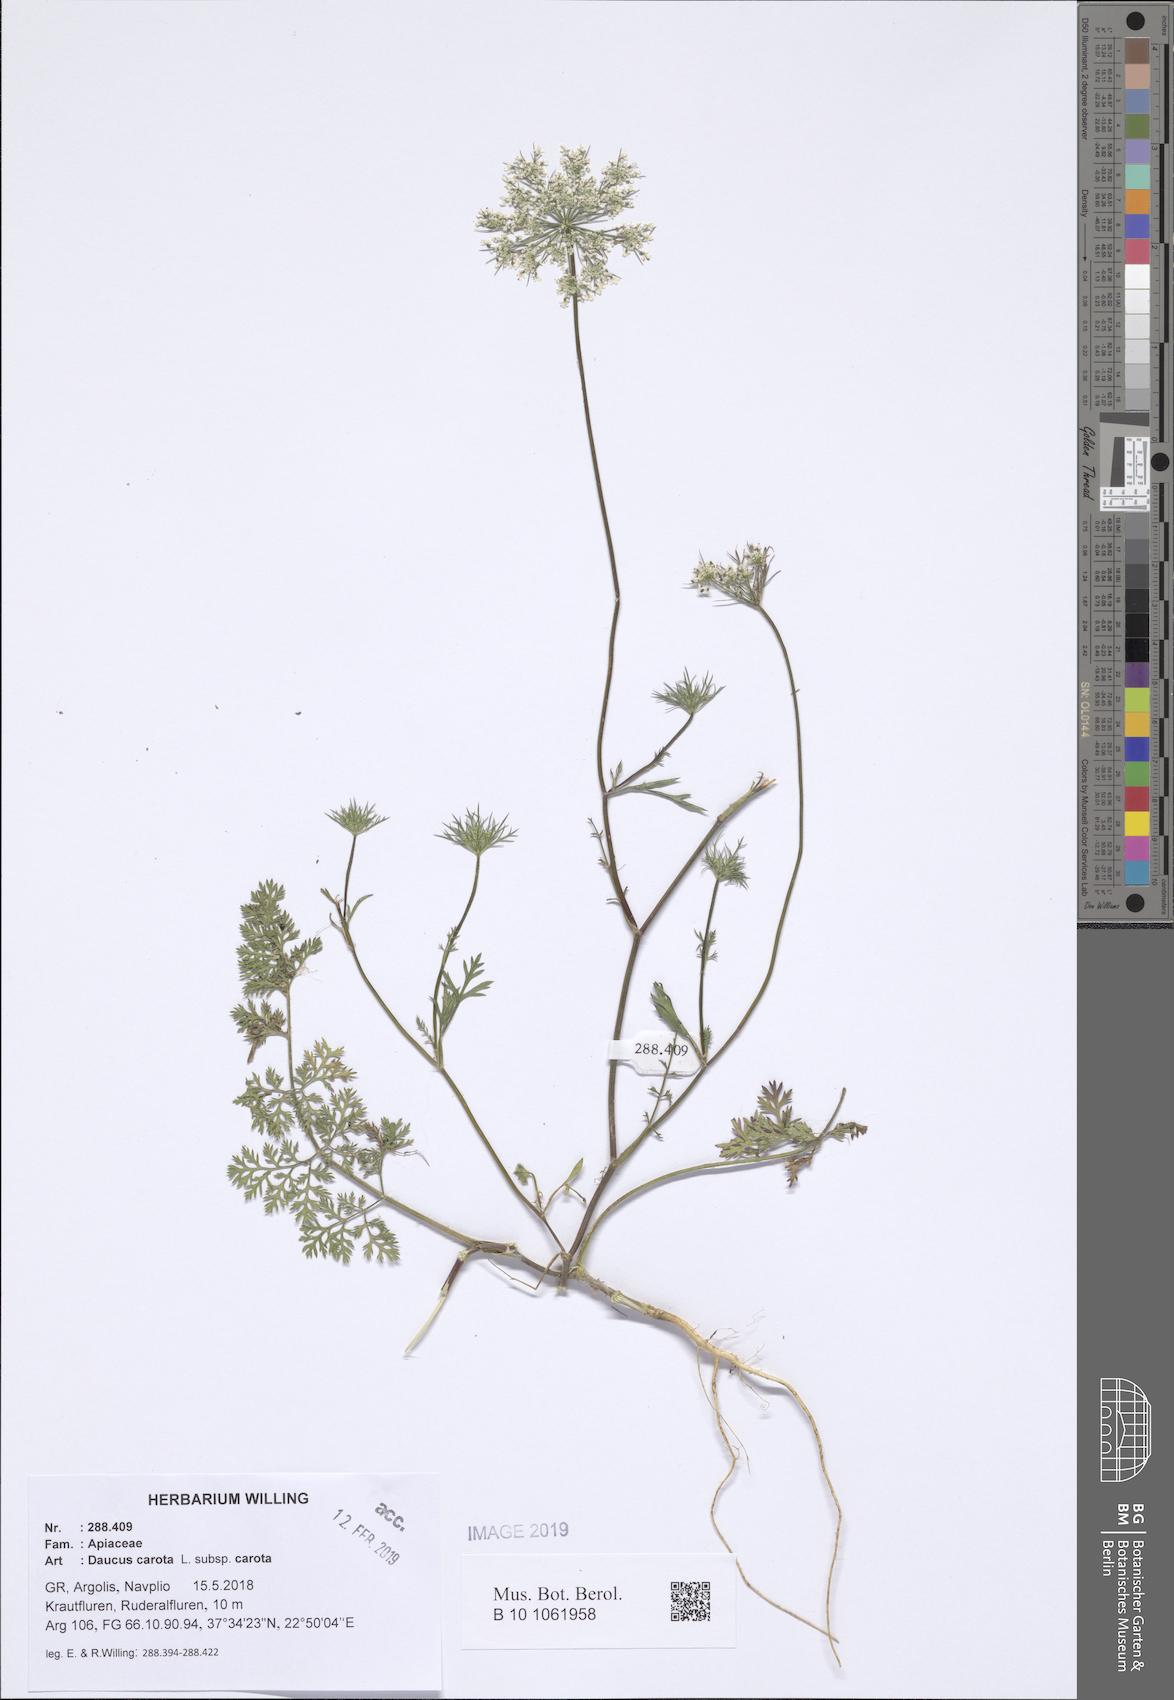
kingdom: Plantae
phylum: Tracheophyta
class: Magnoliopsida
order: Apiales
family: Apiaceae
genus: Daucus
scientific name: Daucus carota
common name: Wild carrot
